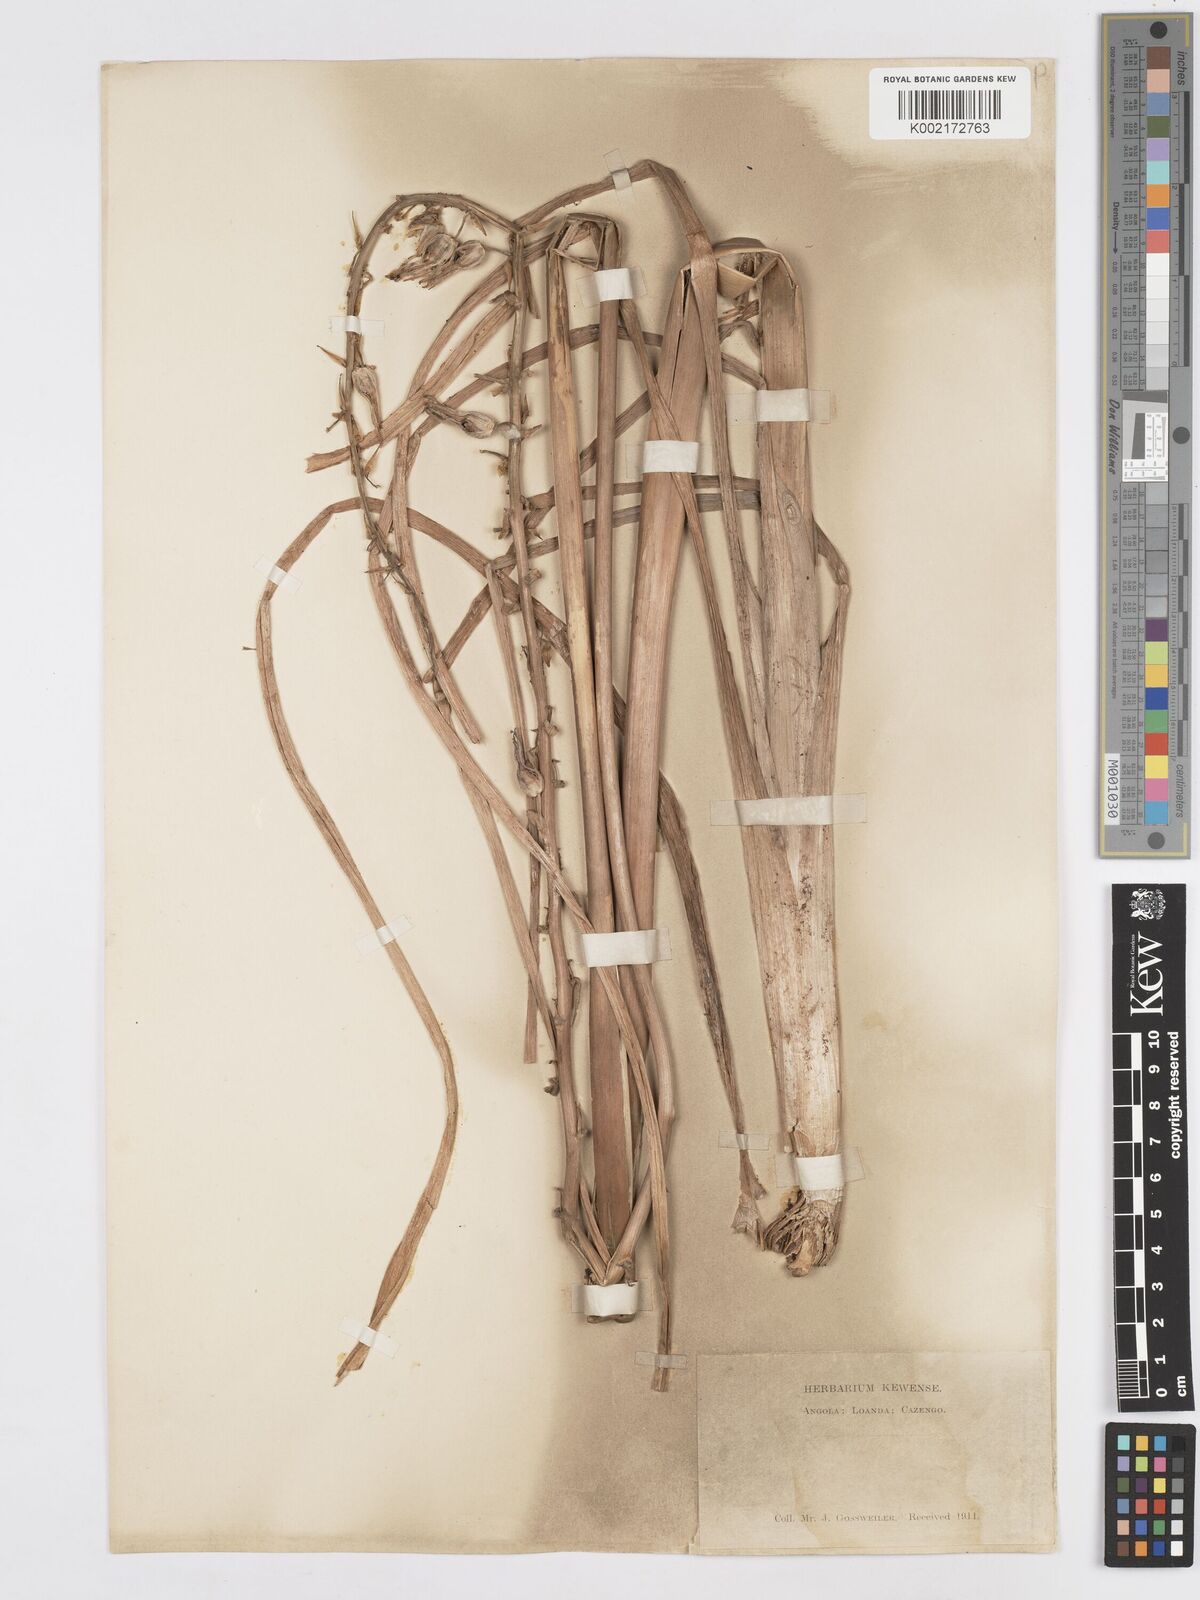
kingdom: Plantae
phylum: Tracheophyta
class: Liliopsida
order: Asparagales
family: Asparagaceae
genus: Albuca
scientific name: Albuca abyssinica
